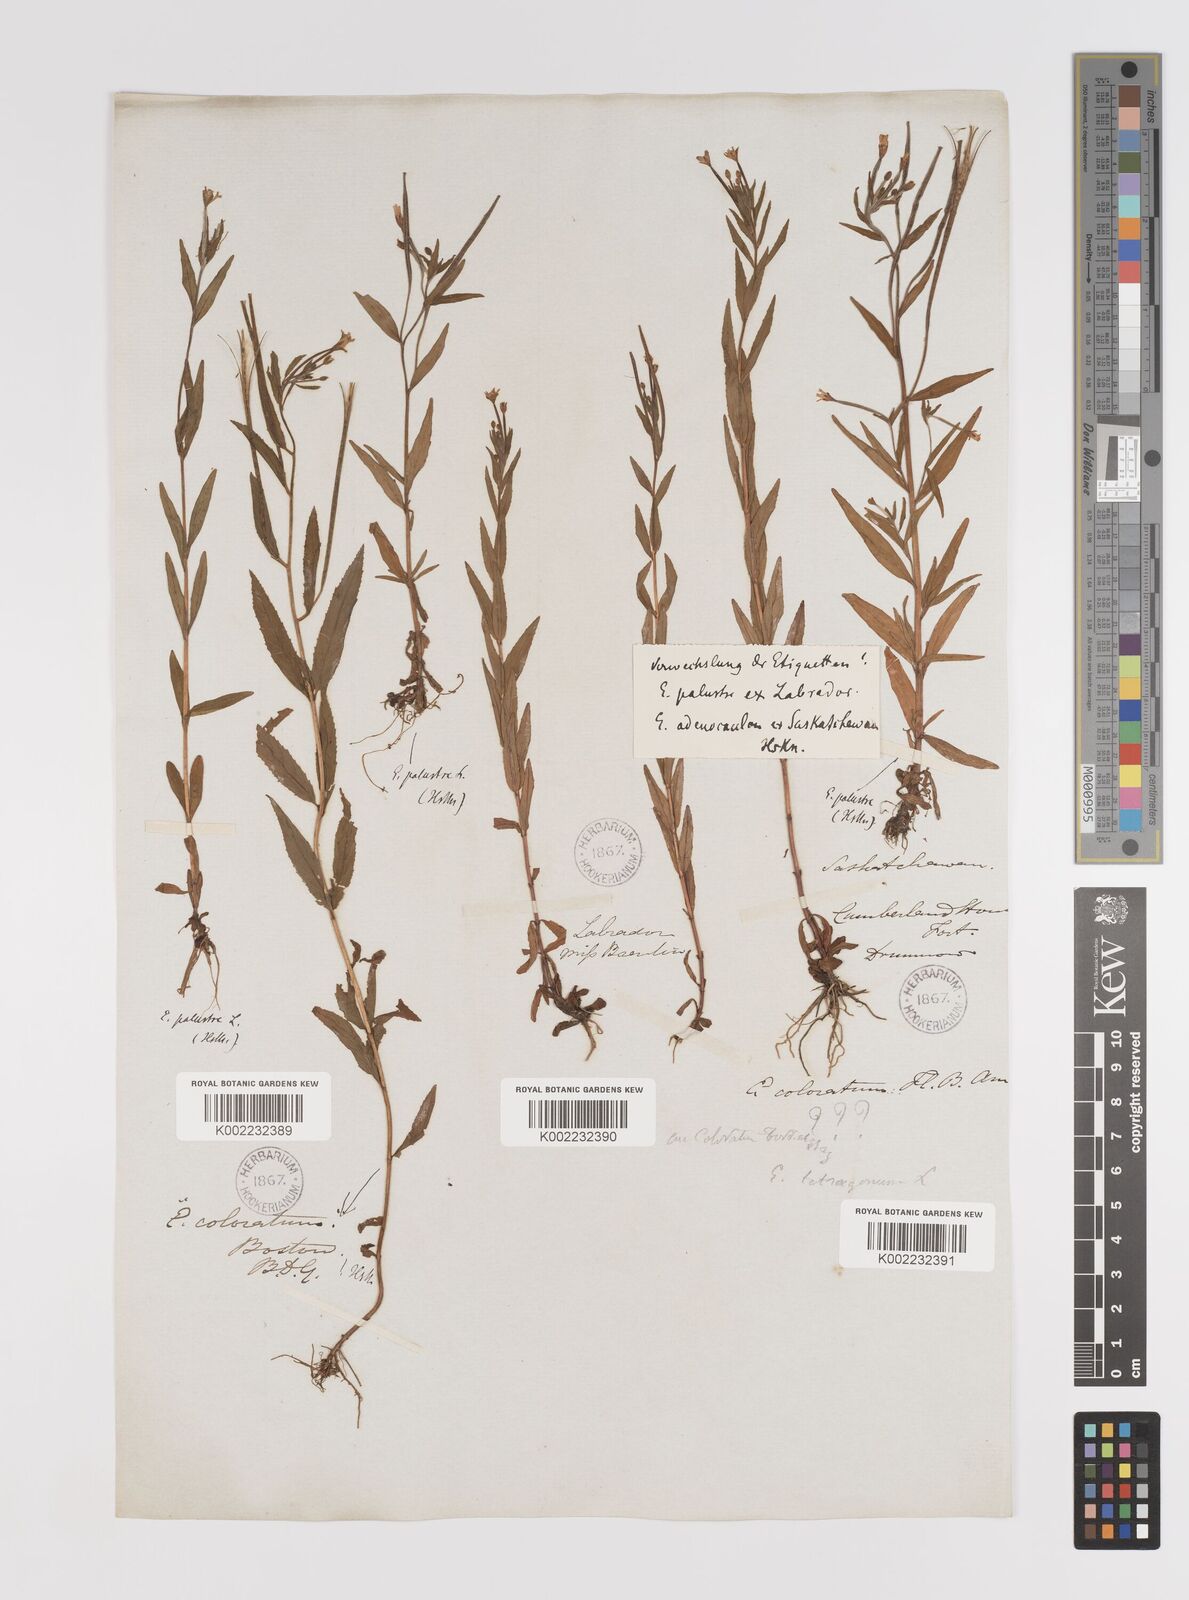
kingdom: Plantae
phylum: Tracheophyta
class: Magnoliopsida
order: Myrtales
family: Onagraceae
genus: Epilobium
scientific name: Epilobium palustre
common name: Marsh willowherb
